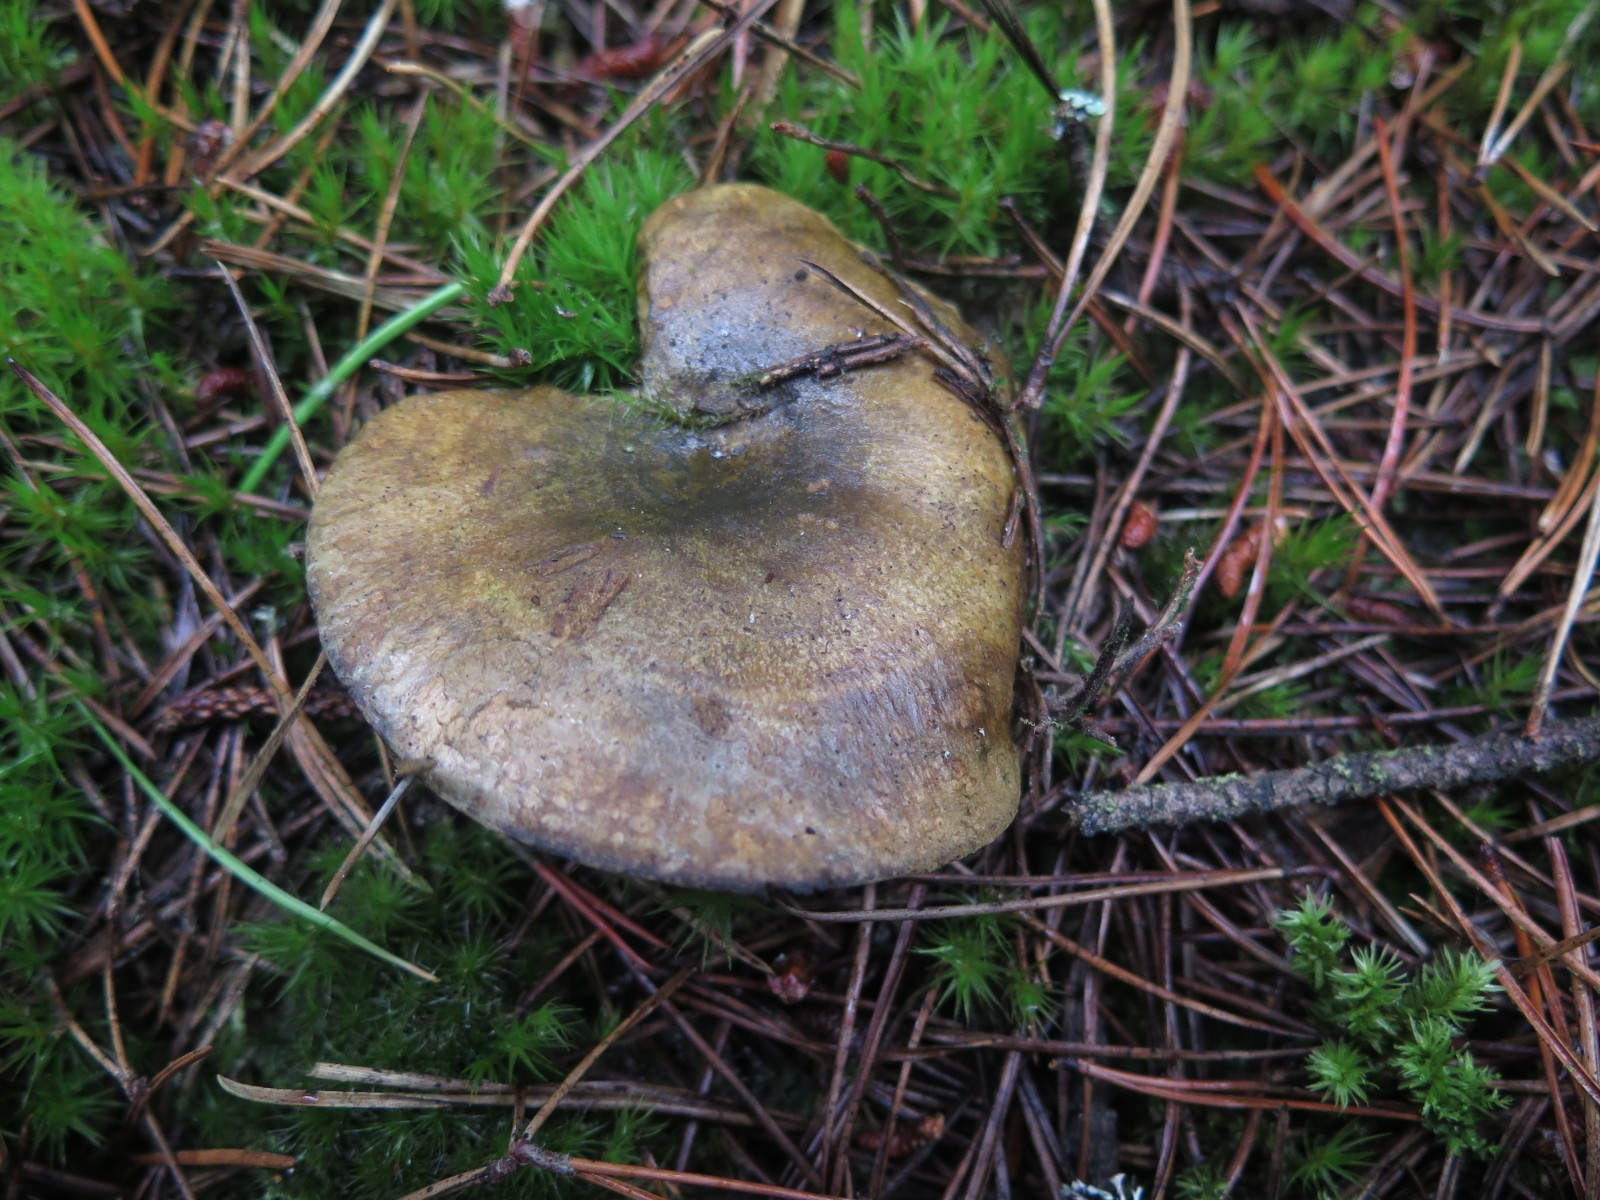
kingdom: Fungi
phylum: Basidiomycota
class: Agaricomycetes
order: Russulales
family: Russulaceae
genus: Lactarius
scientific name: Lactarius necator
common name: manddraber-mælkehat
